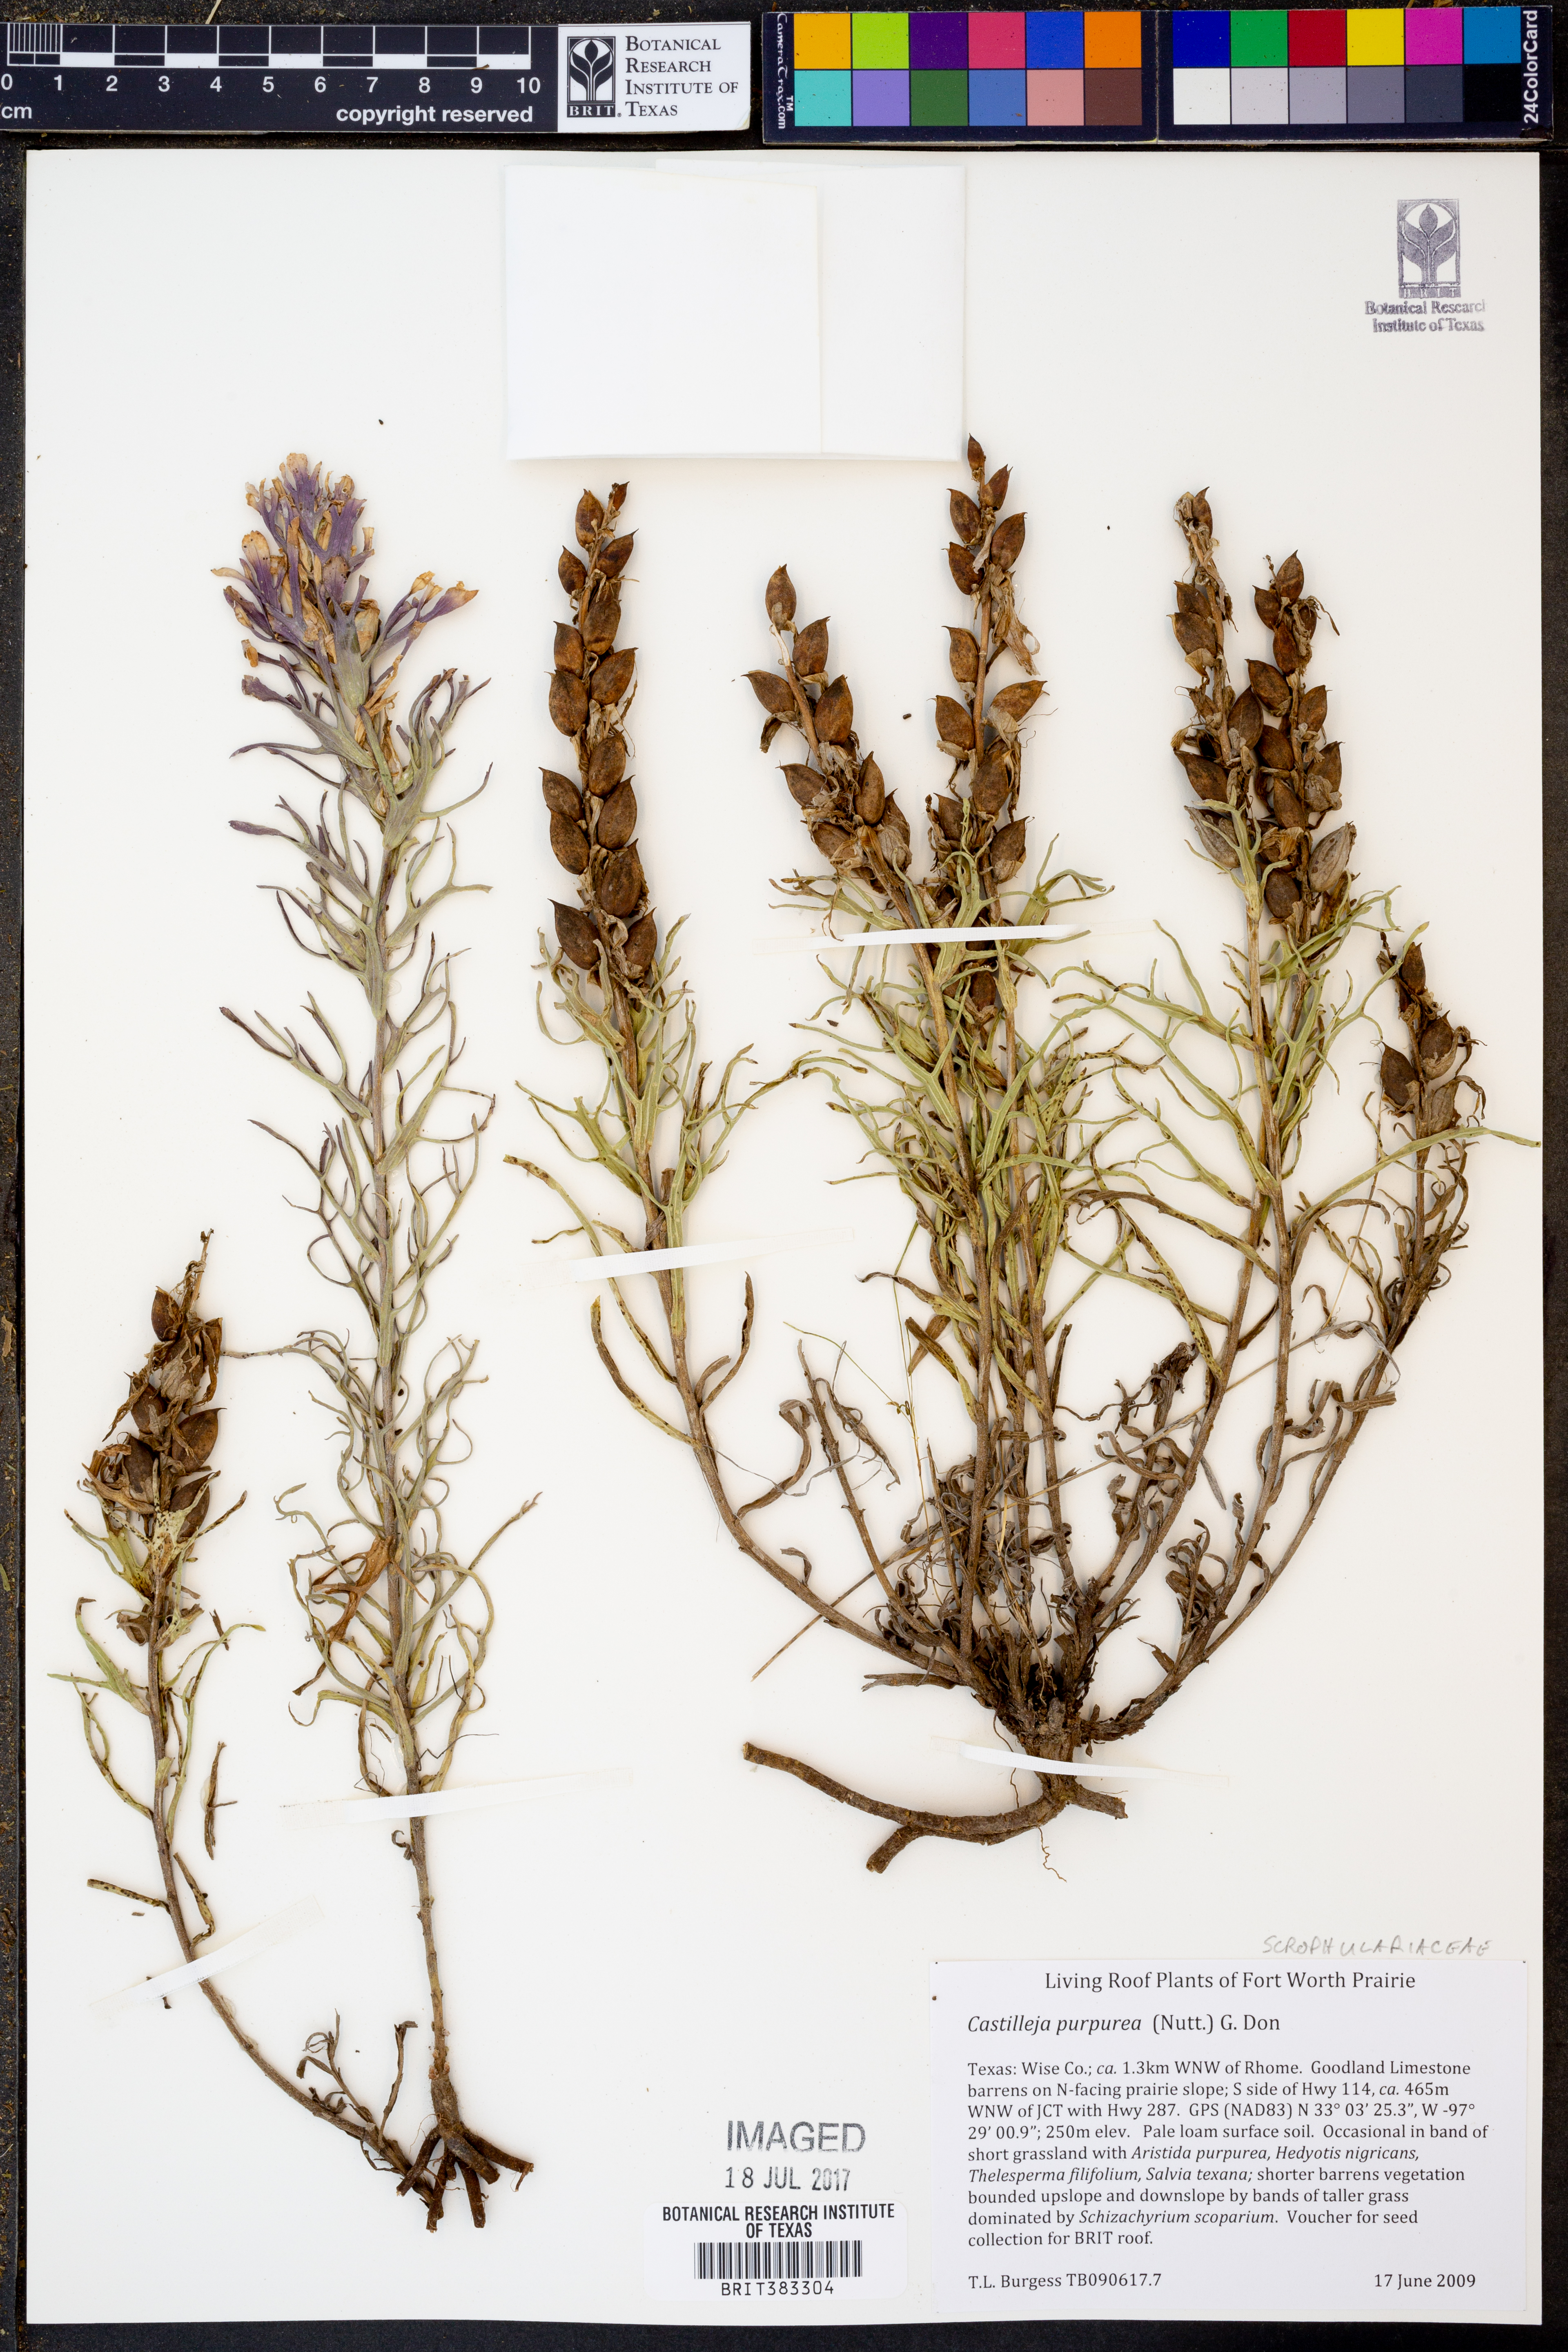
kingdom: Plantae
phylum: Tracheophyta
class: Magnoliopsida
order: Lamiales
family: Orobanchaceae
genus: Castilleja
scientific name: Castilleja purpurea
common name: Plains paintbrush
